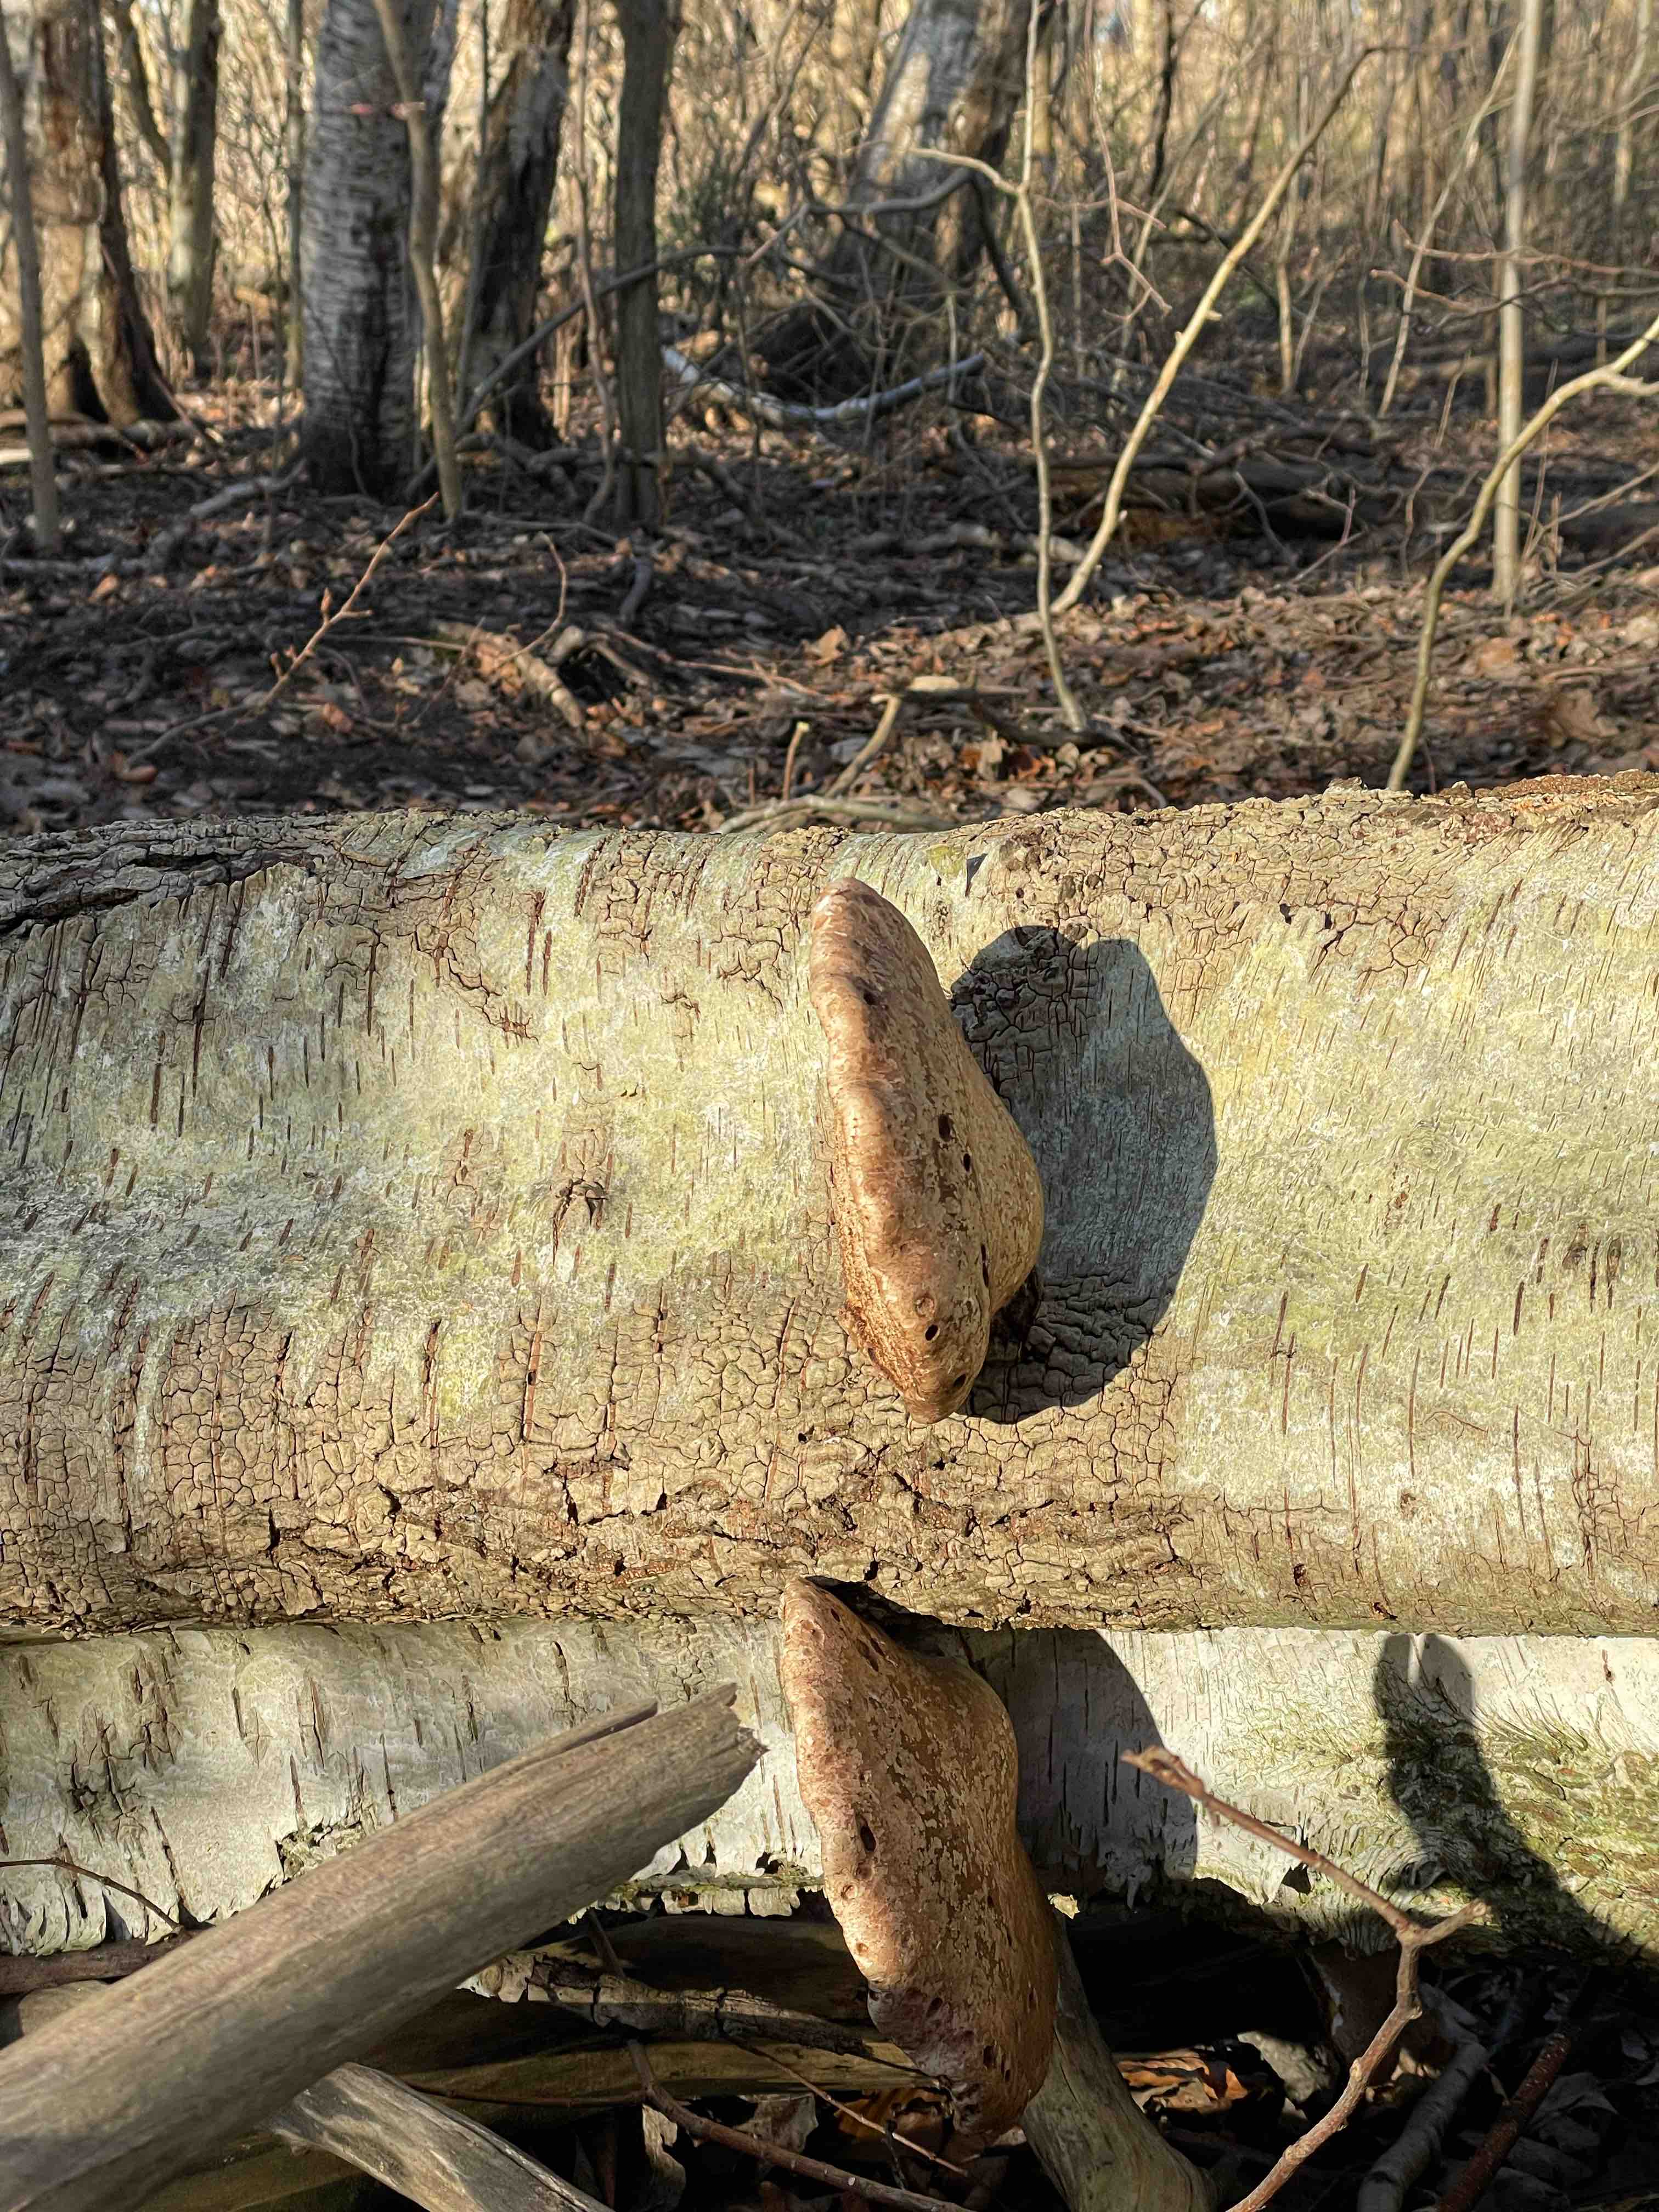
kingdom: Fungi
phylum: Basidiomycota
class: Agaricomycetes
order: Polyporales
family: Fomitopsidaceae
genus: Fomitopsis
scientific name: Fomitopsis betulina
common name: birkeporesvamp
